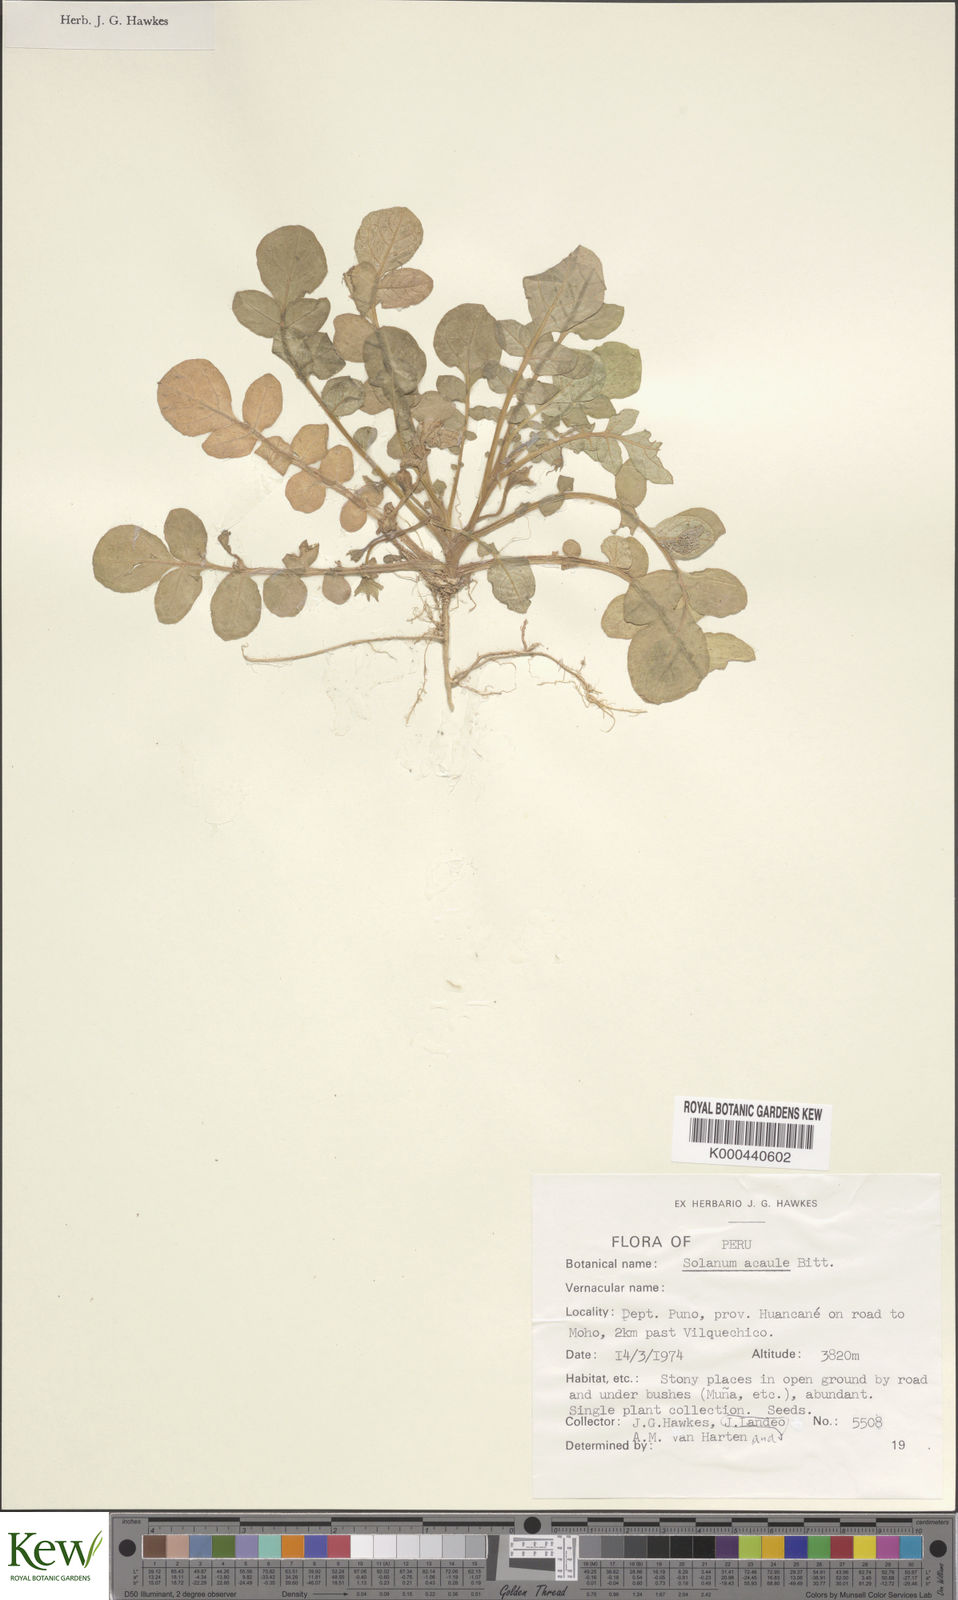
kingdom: Plantae
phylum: Tracheophyta
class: Magnoliopsida
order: Solanales
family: Solanaceae
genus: Solanum
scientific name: Solanum acaule
